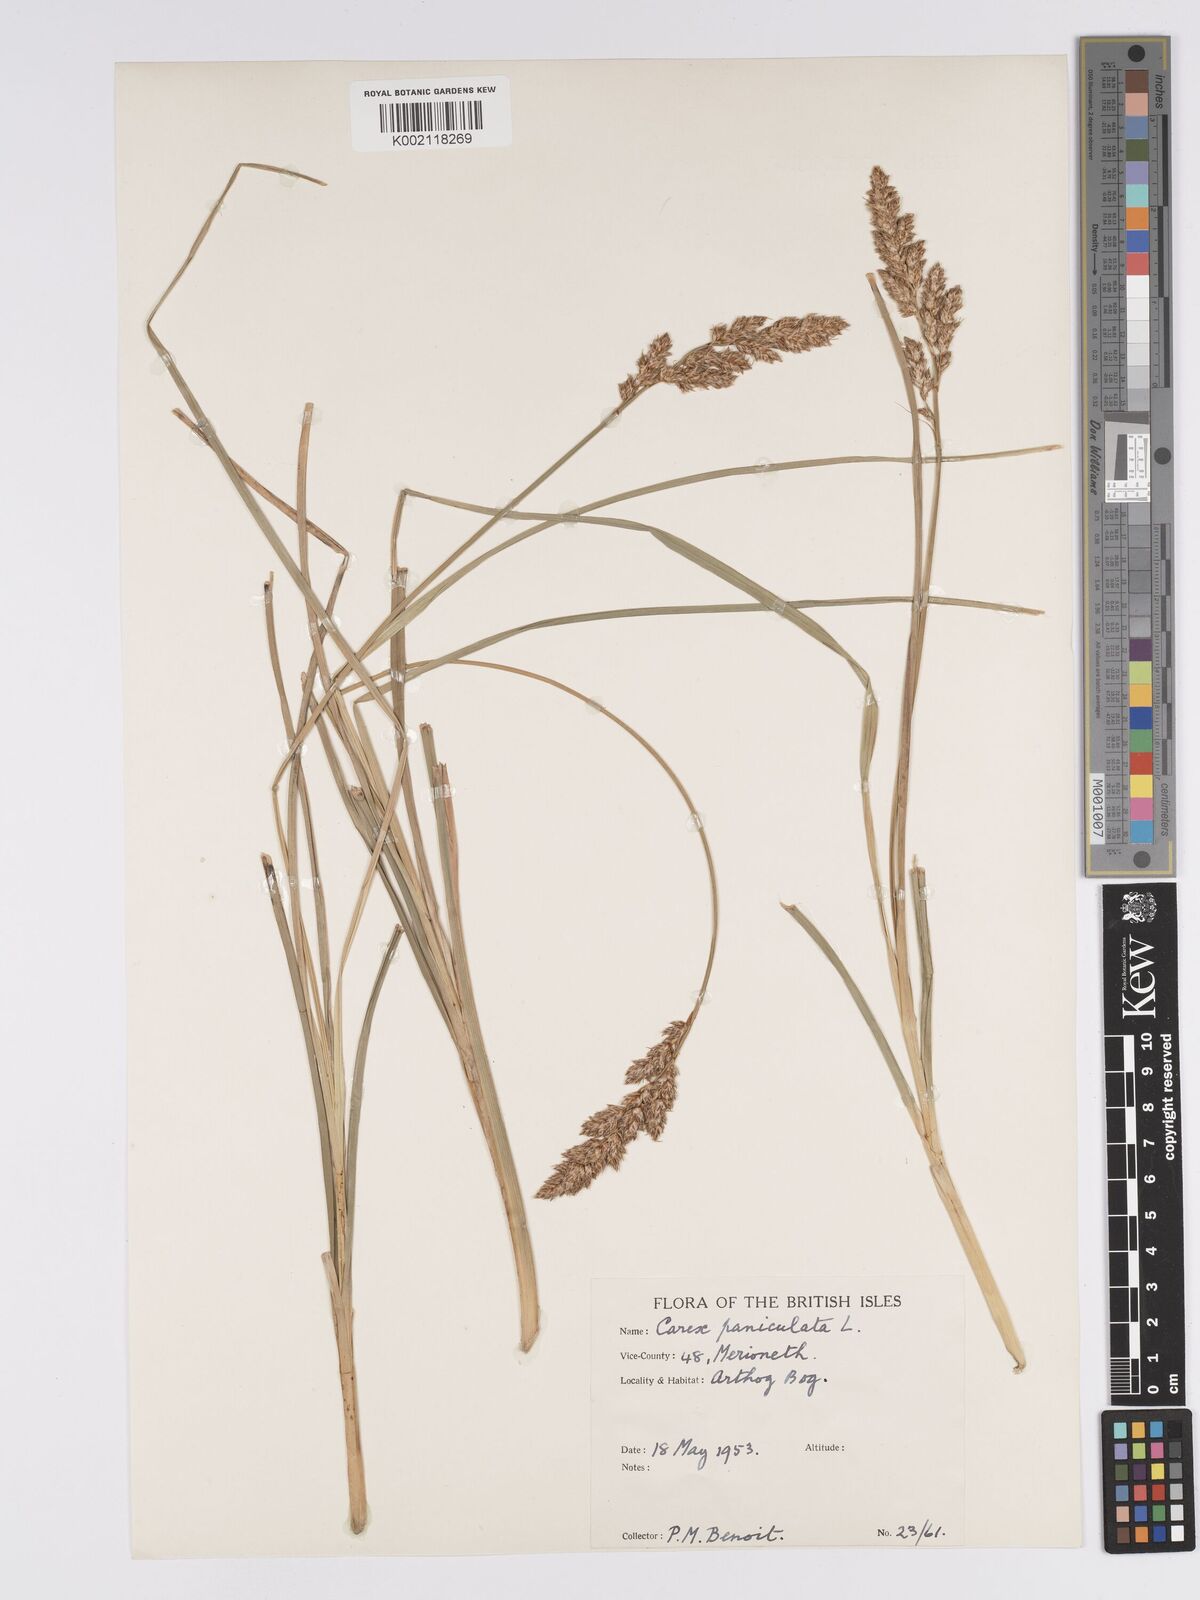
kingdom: Plantae
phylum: Tracheophyta
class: Liliopsida
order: Poales
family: Cyperaceae
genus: Carex
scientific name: Carex paniculata
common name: Greater tussock-sedge
